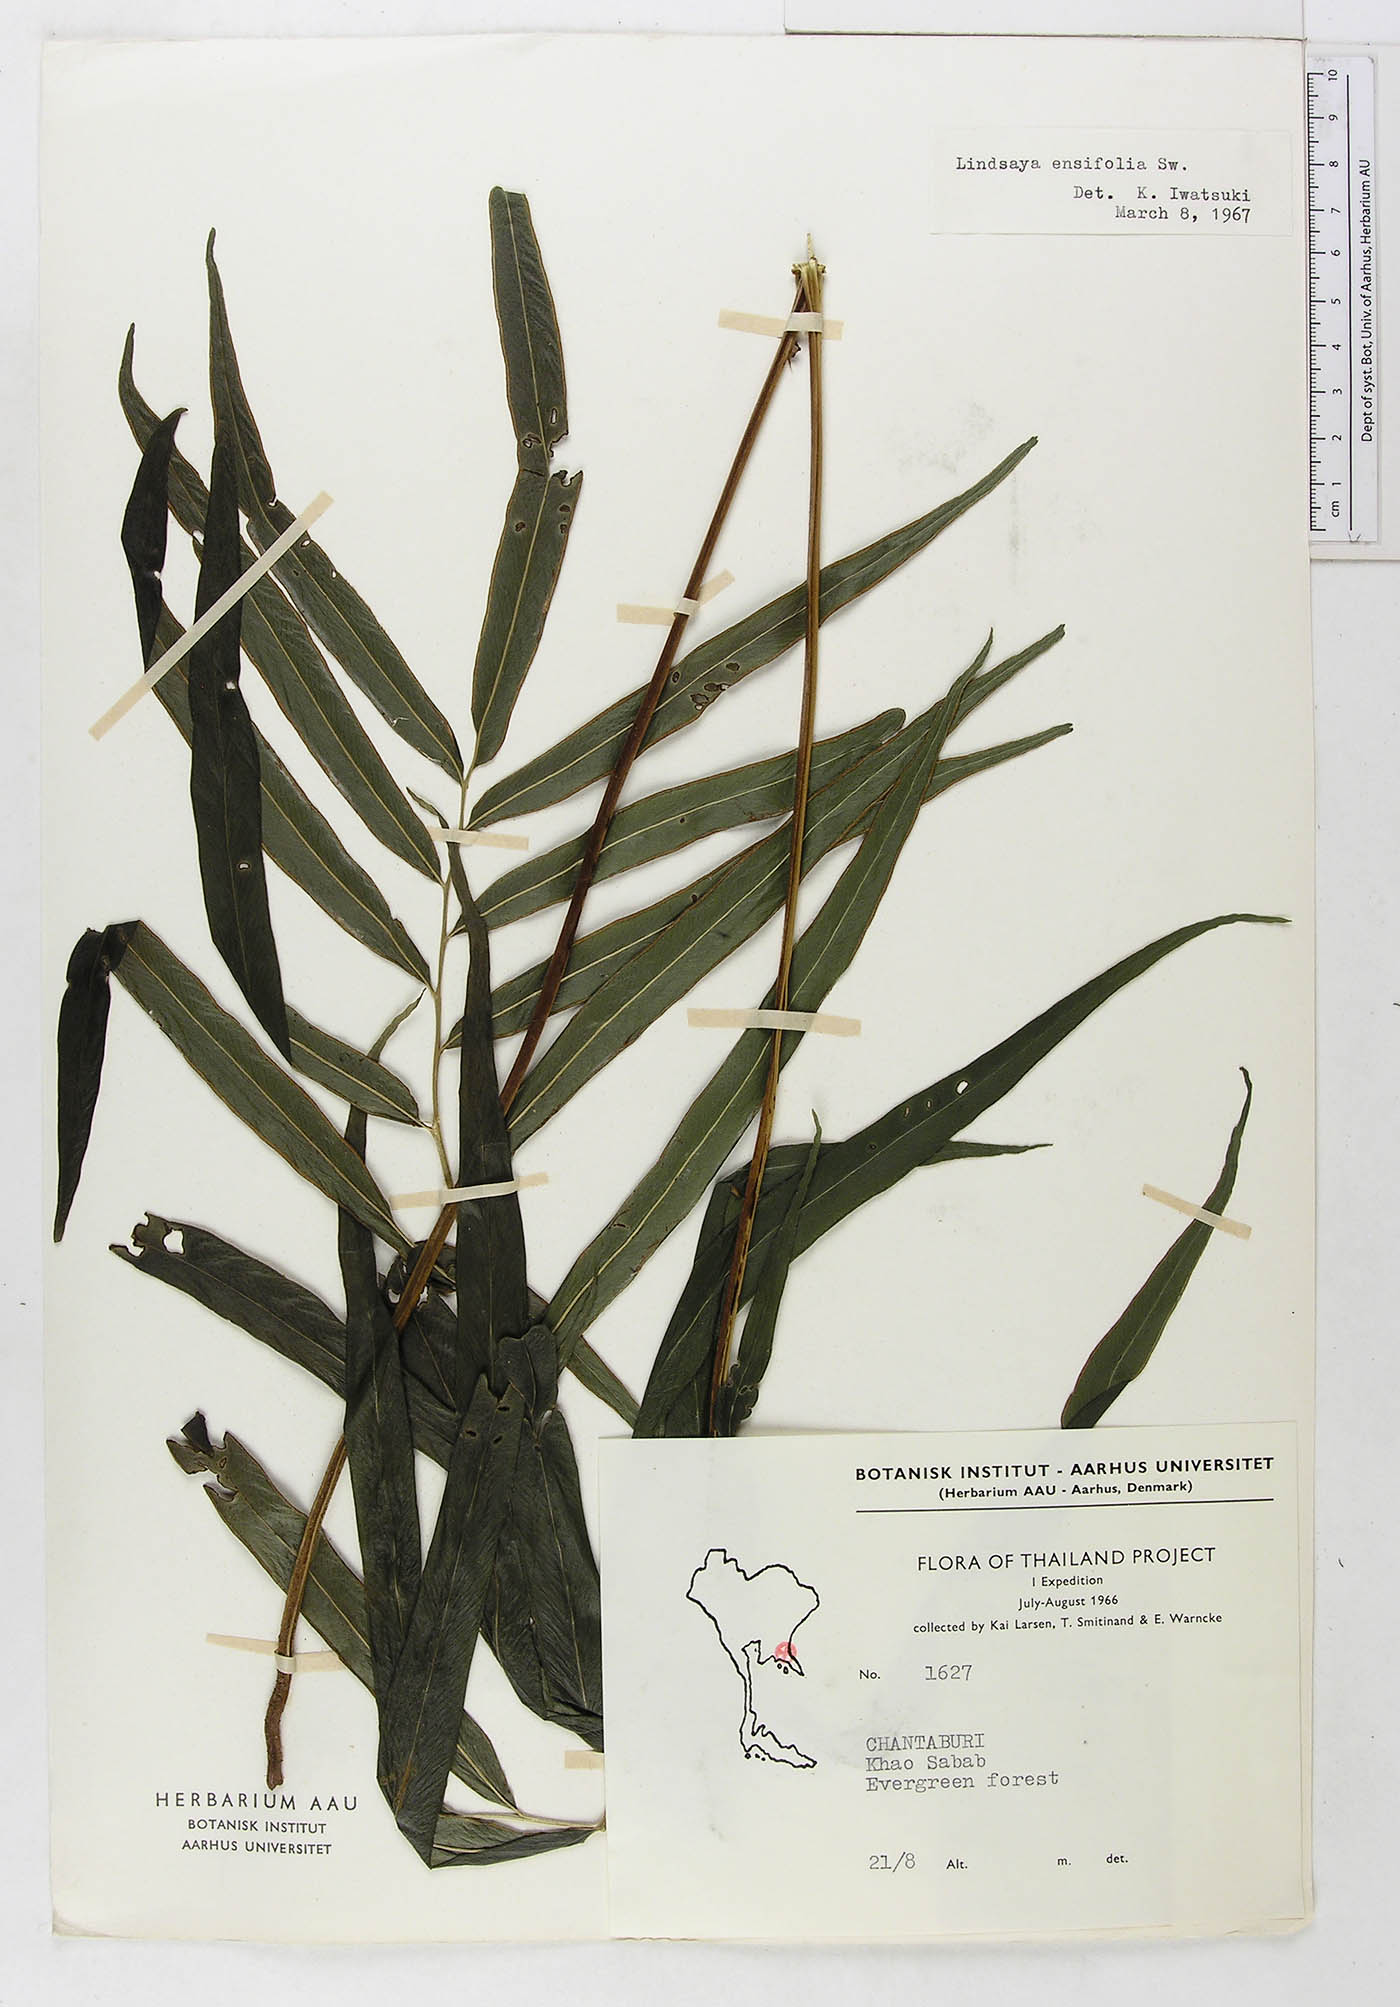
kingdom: Plantae
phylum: Tracheophyta
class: Polypodiopsida
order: Polypodiales
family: Lindsaeaceae
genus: Lindsaea
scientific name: Lindsaea ensifolia
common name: Graceful necklace fern
